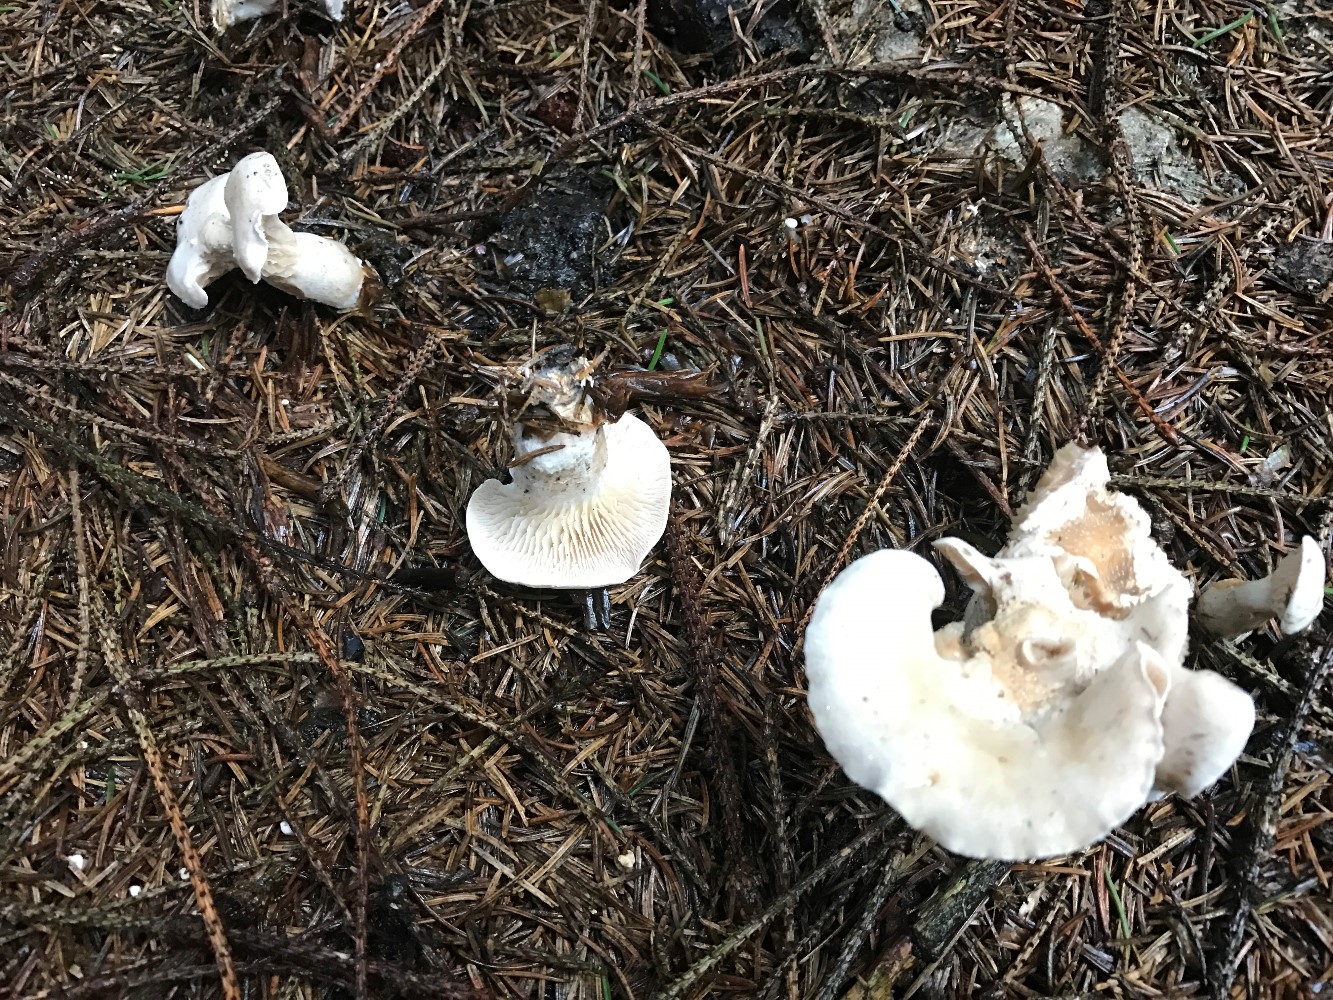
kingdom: Fungi
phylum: Basidiomycota
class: Agaricomycetes
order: Agaricales
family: Pseudoclitocybaceae
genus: Clitopaxillus
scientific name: Clitopaxillus fibulatus
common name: bestøvlet tragthat
